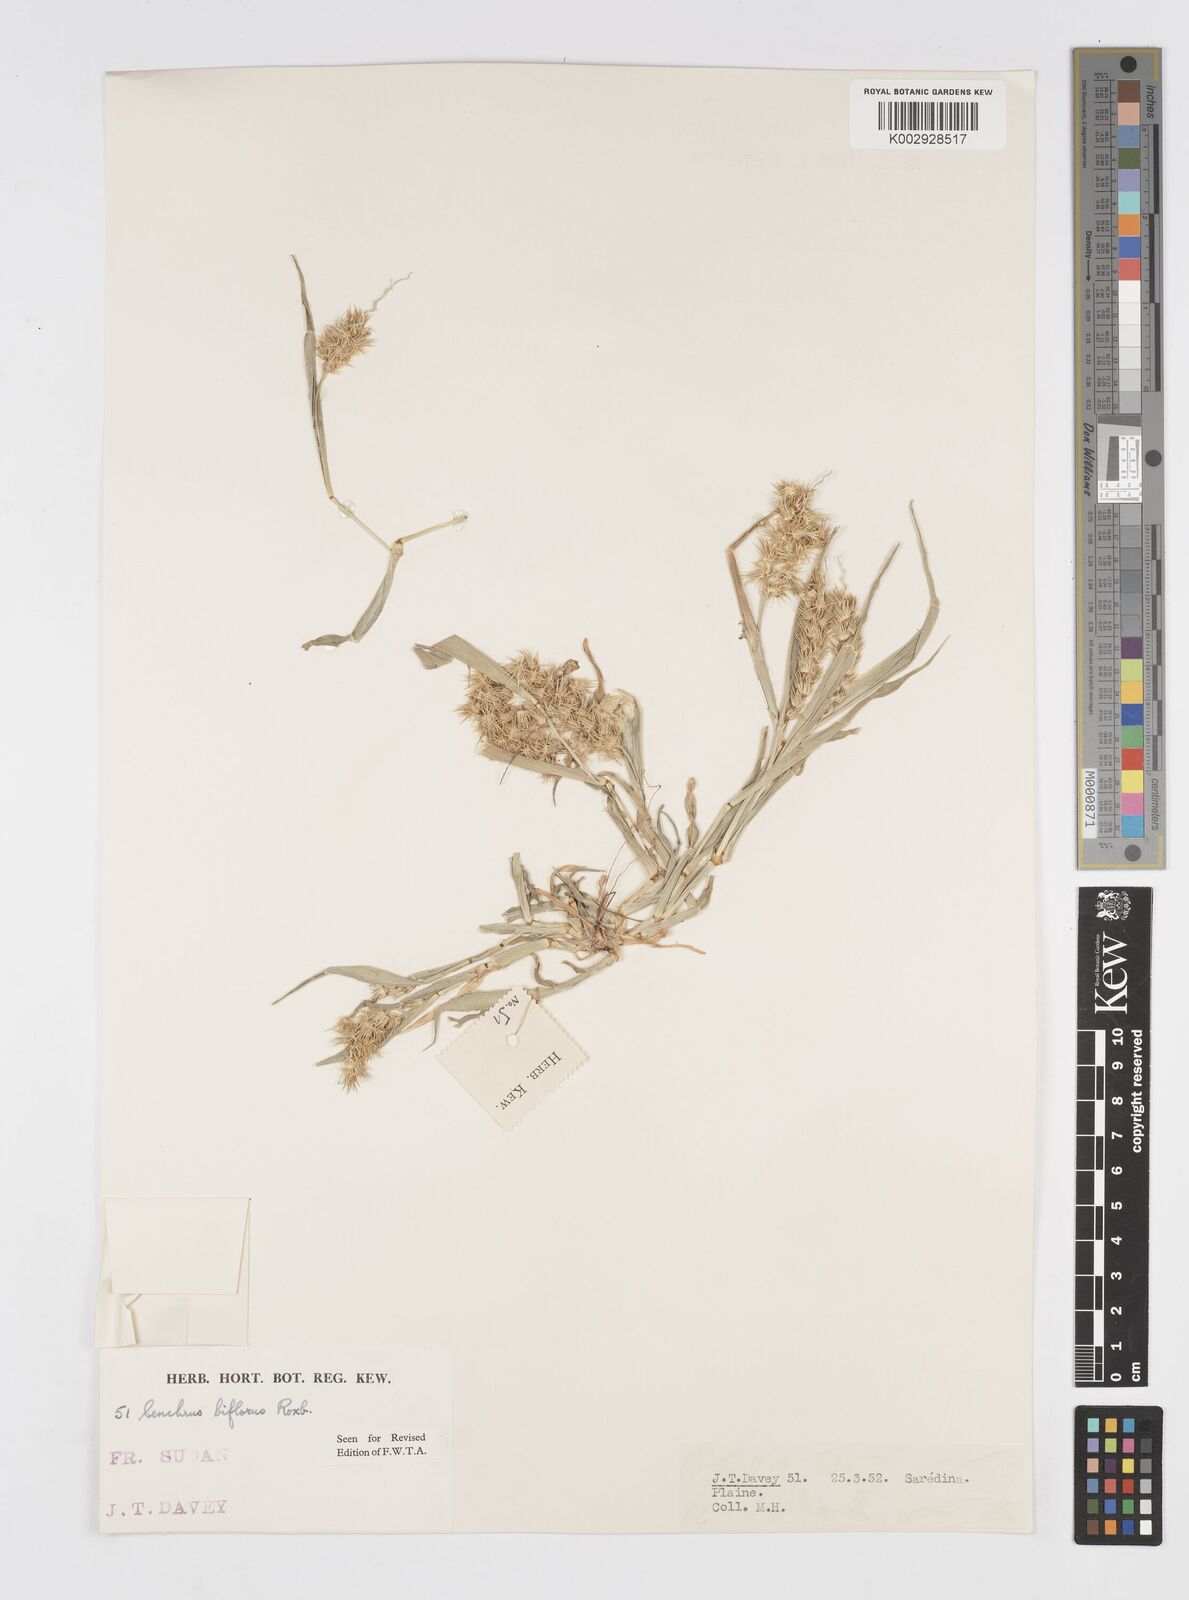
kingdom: Plantae
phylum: Tracheophyta
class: Liliopsida
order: Poales
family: Poaceae
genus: Cenchrus
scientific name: Cenchrus biflorus
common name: Indian sandbur
